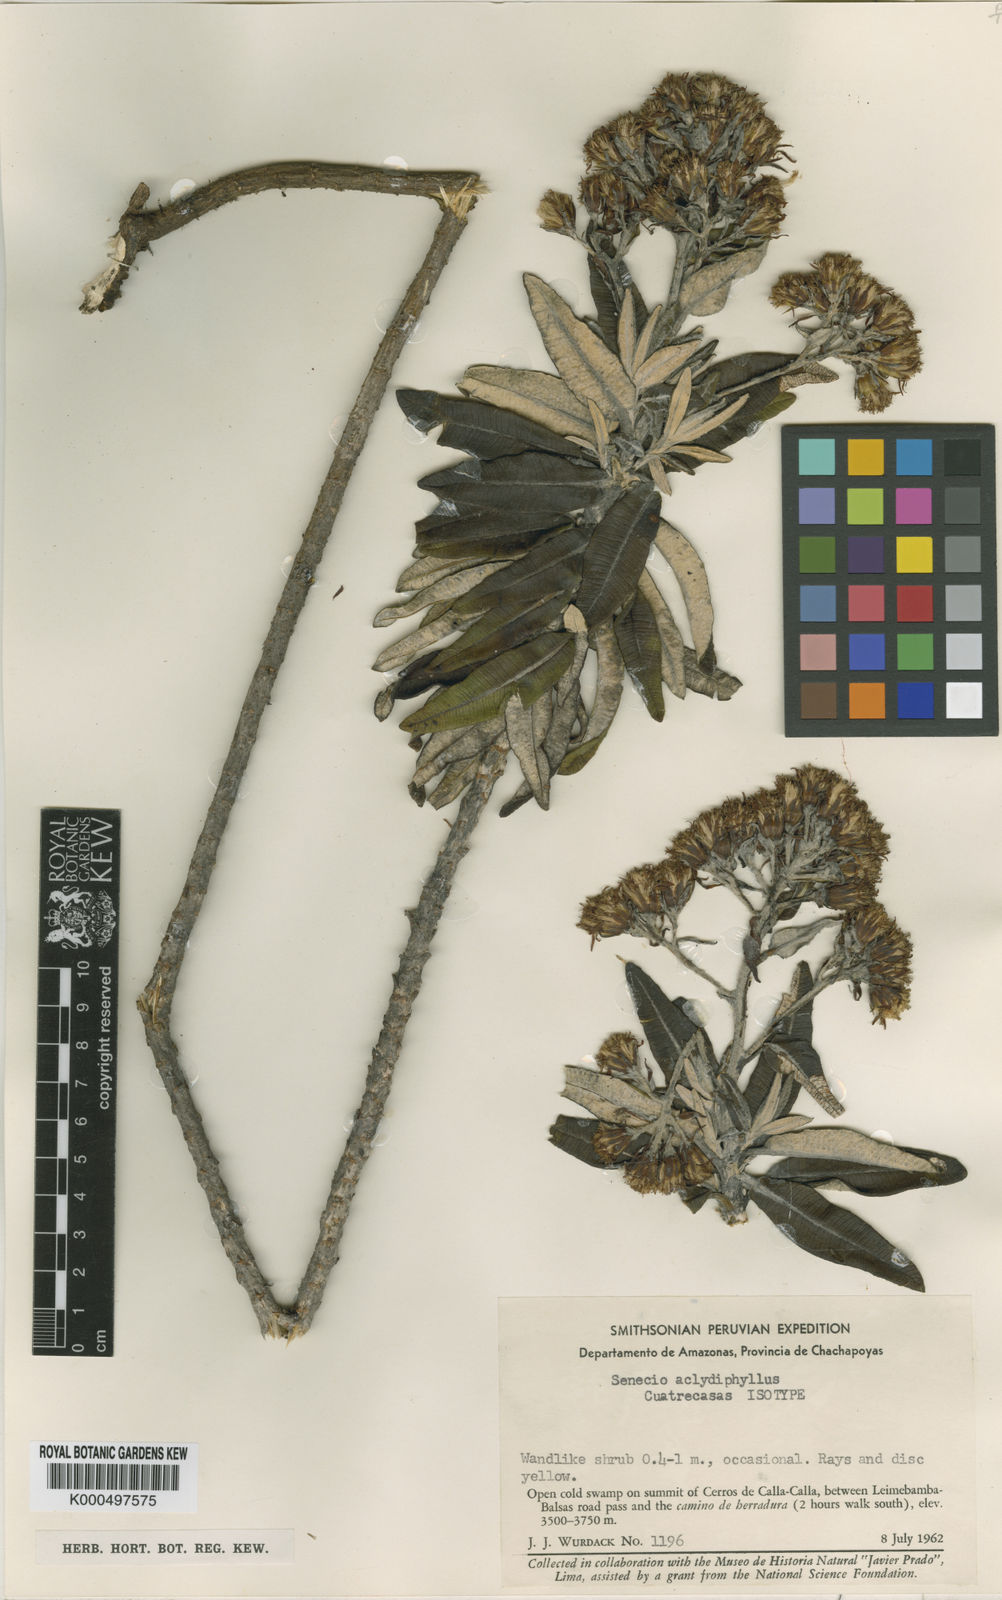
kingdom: Plantae
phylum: Tracheophyta
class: Magnoliopsida
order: Asterales
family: Asteraceae
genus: Monticalia
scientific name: Monticalia
